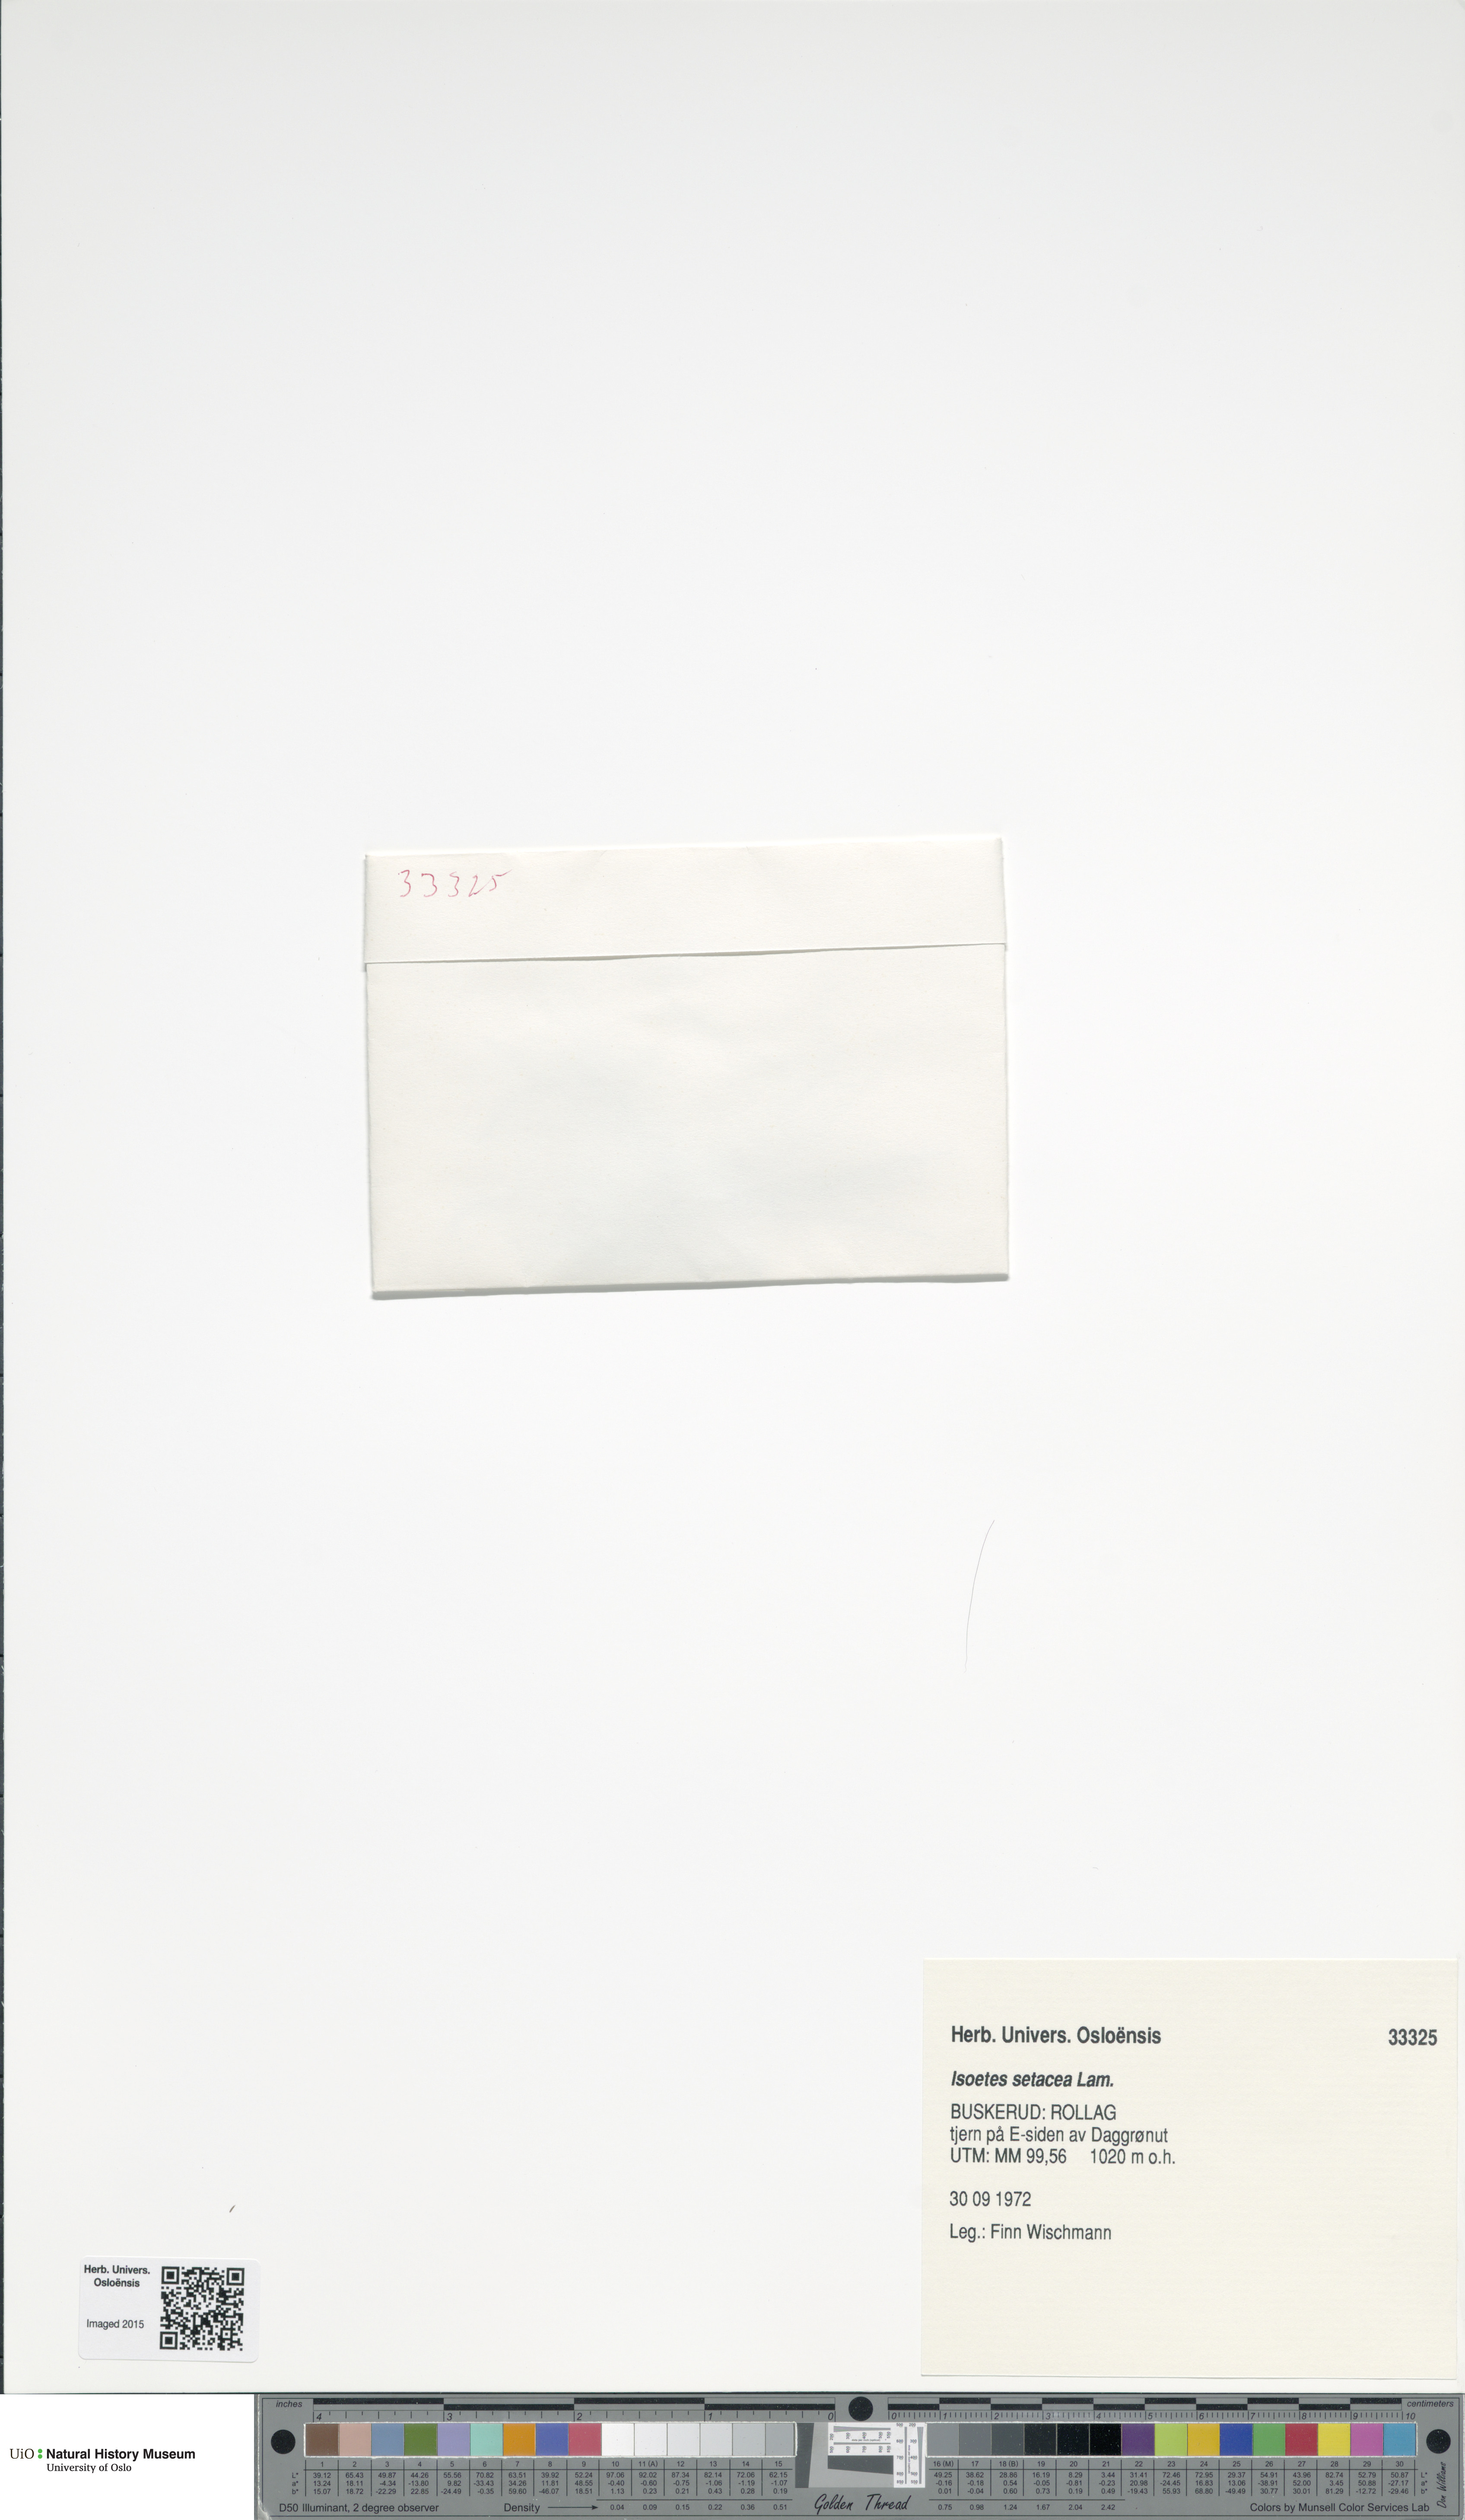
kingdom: Plantae
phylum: Tracheophyta
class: Lycopodiopsida
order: Isoetales
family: Isoetaceae
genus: Isoetes
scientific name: Isoetes echinospora
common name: Spring quillwort
